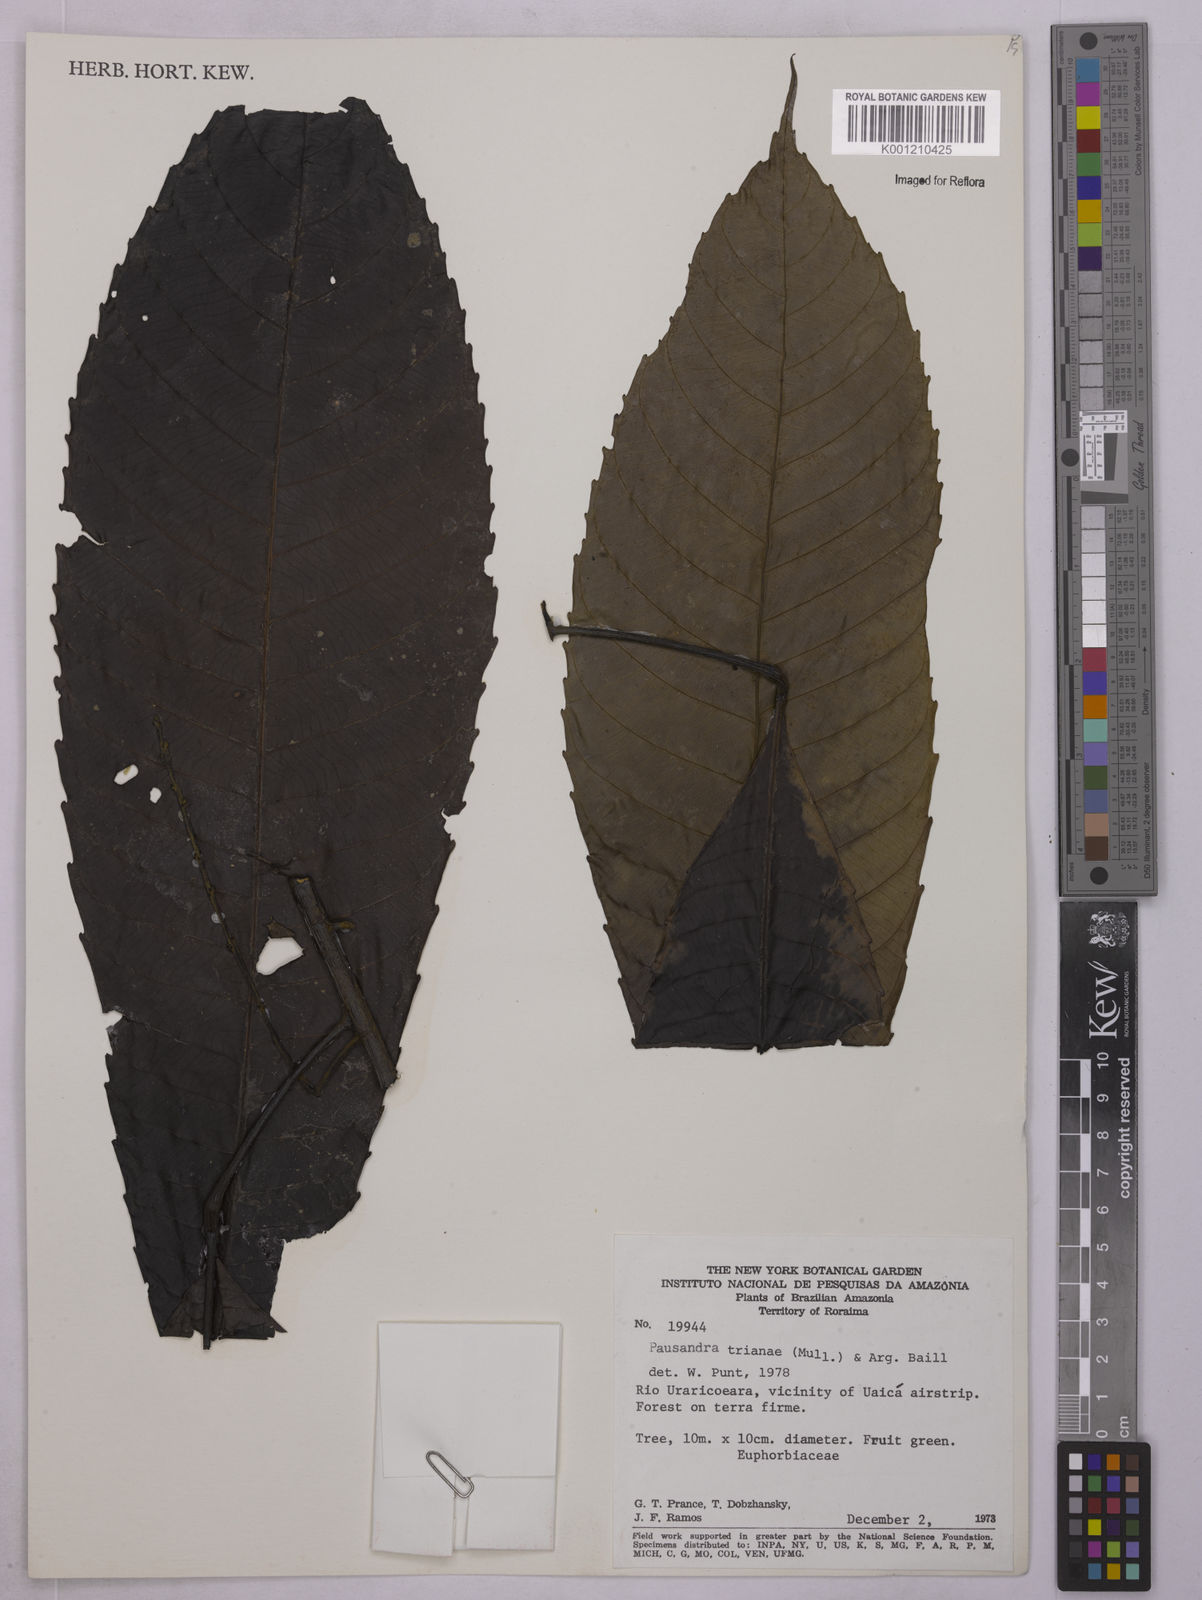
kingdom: Plantae
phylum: Tracheophyta
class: Magnoliopsida
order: Malpighiales
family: Euphorbiaceae
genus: Pausandra
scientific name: Pausandra
